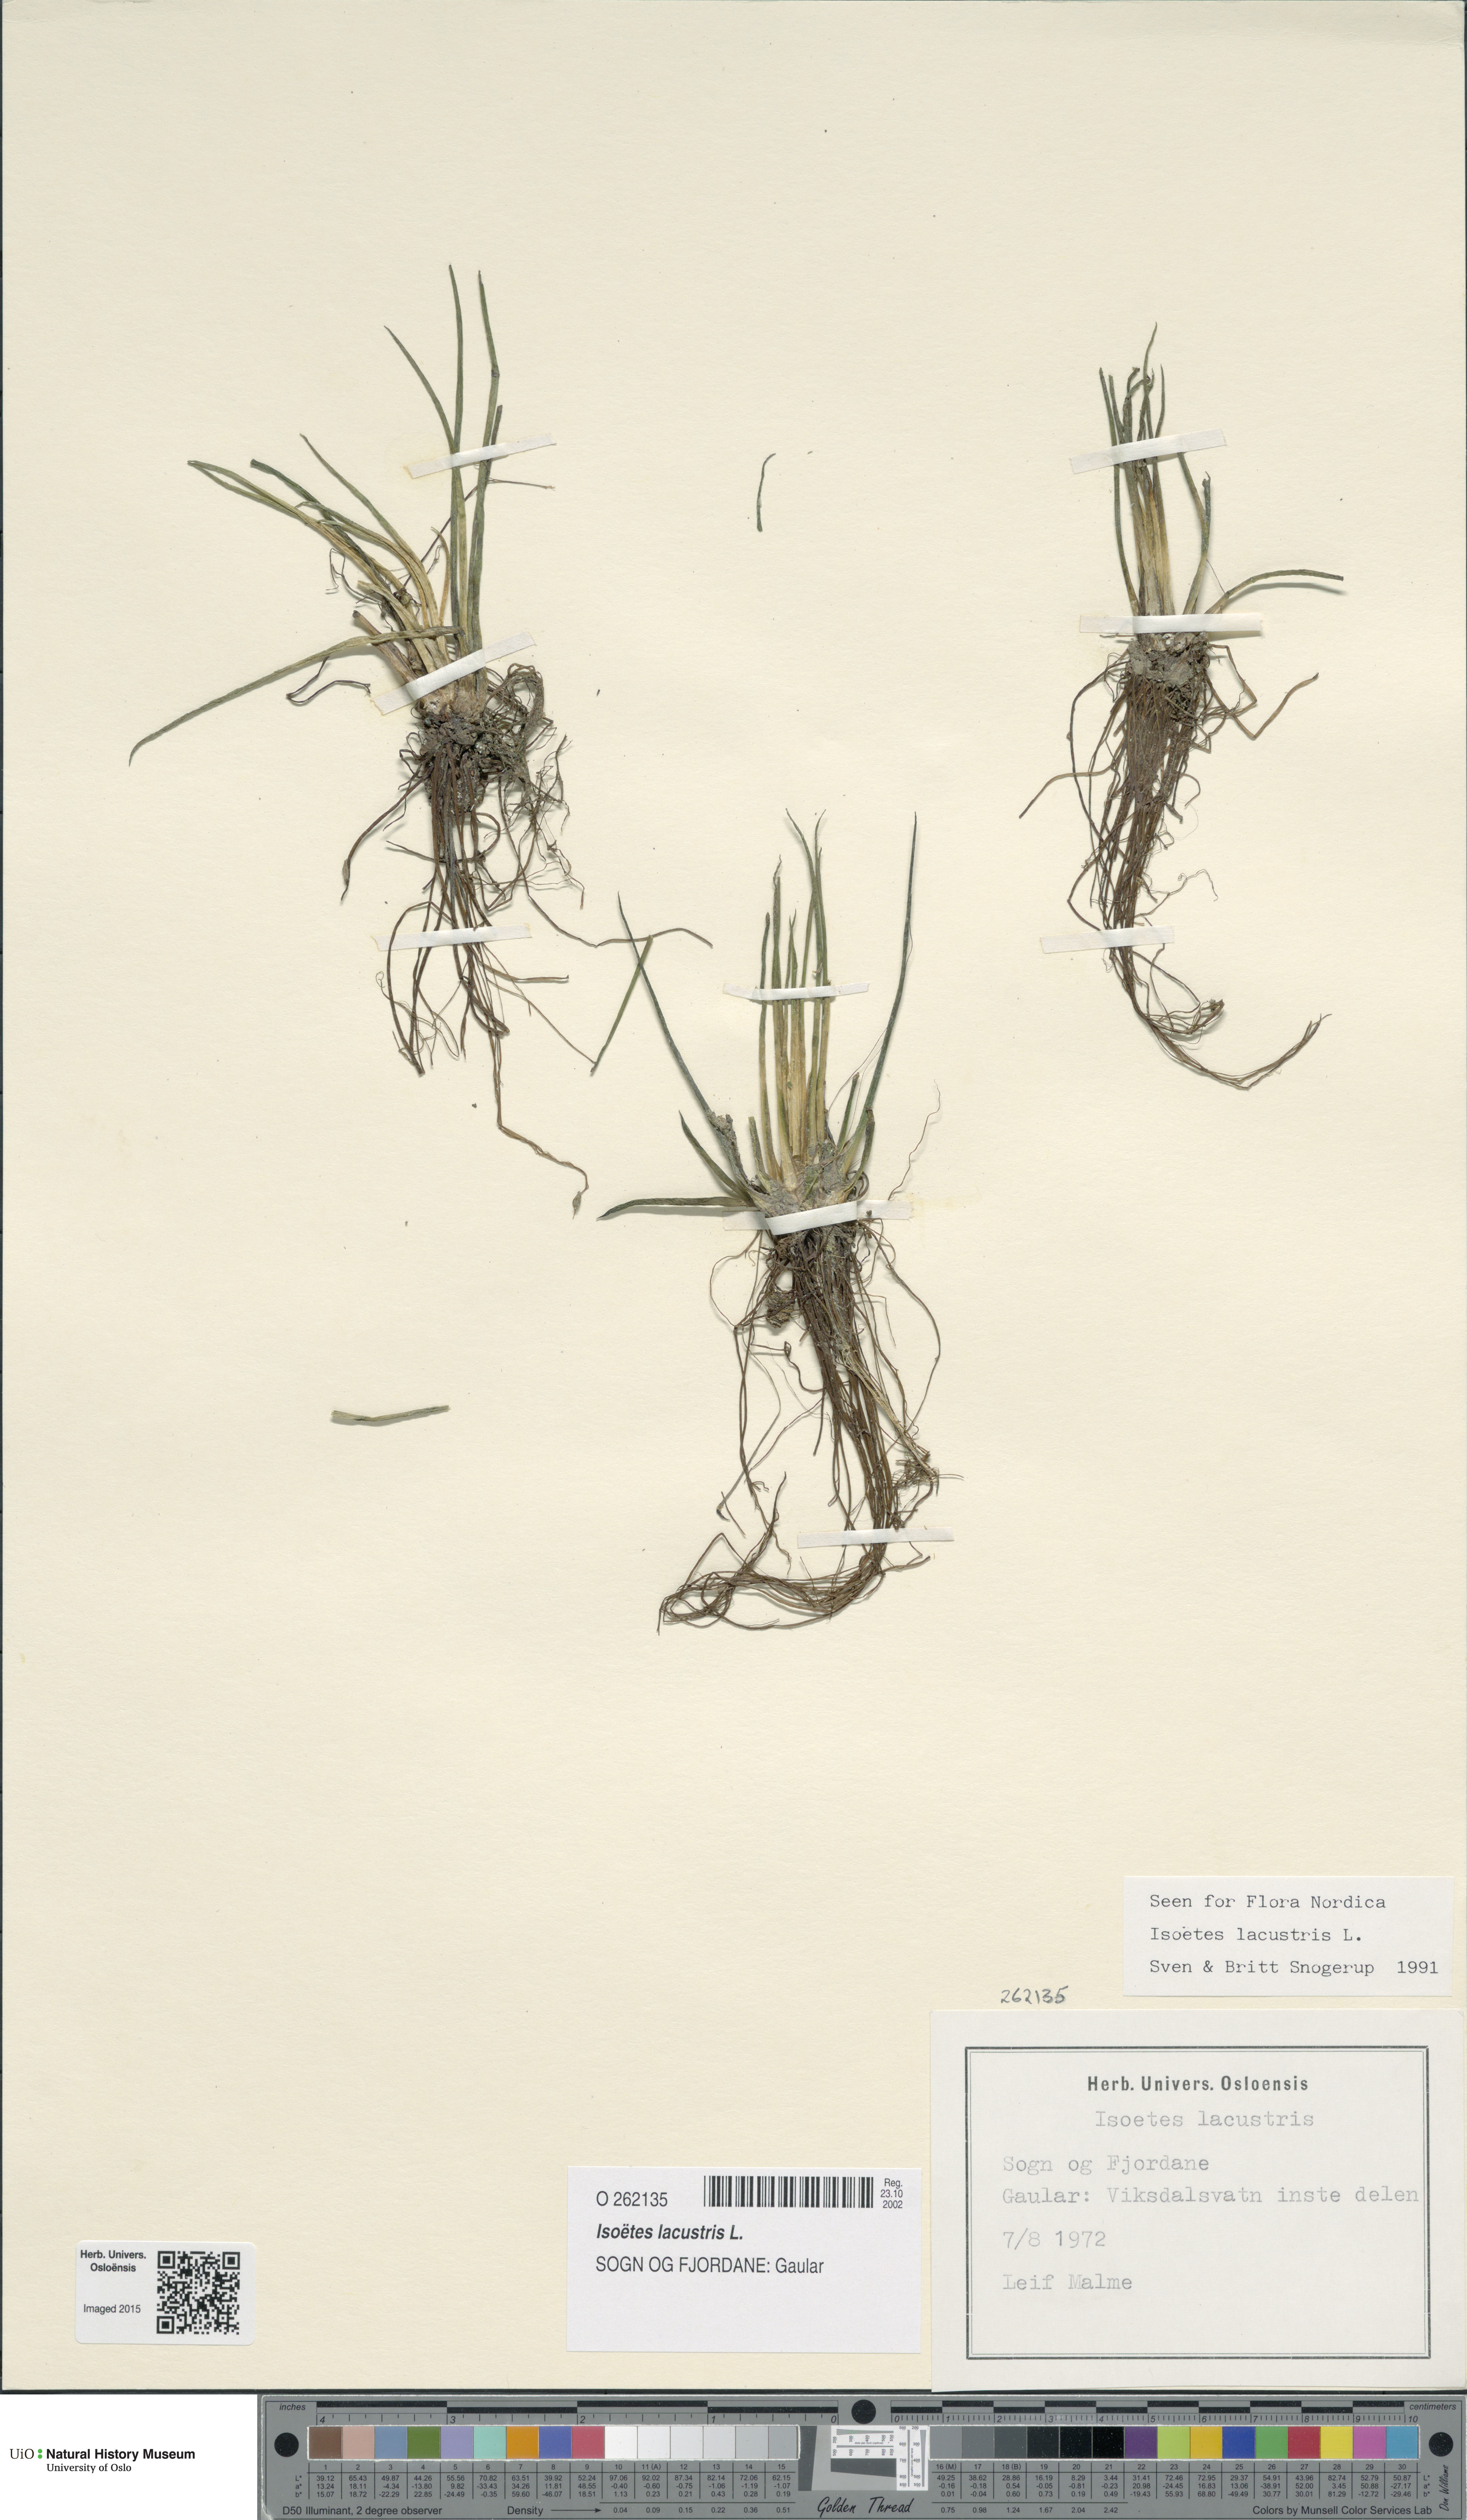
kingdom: Plantae
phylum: Tracheophyta
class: Lycopodiopsida
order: Isoetales
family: Isoetaceae
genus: Isoetes
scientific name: Isoetes lacustris
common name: Common quillwort
